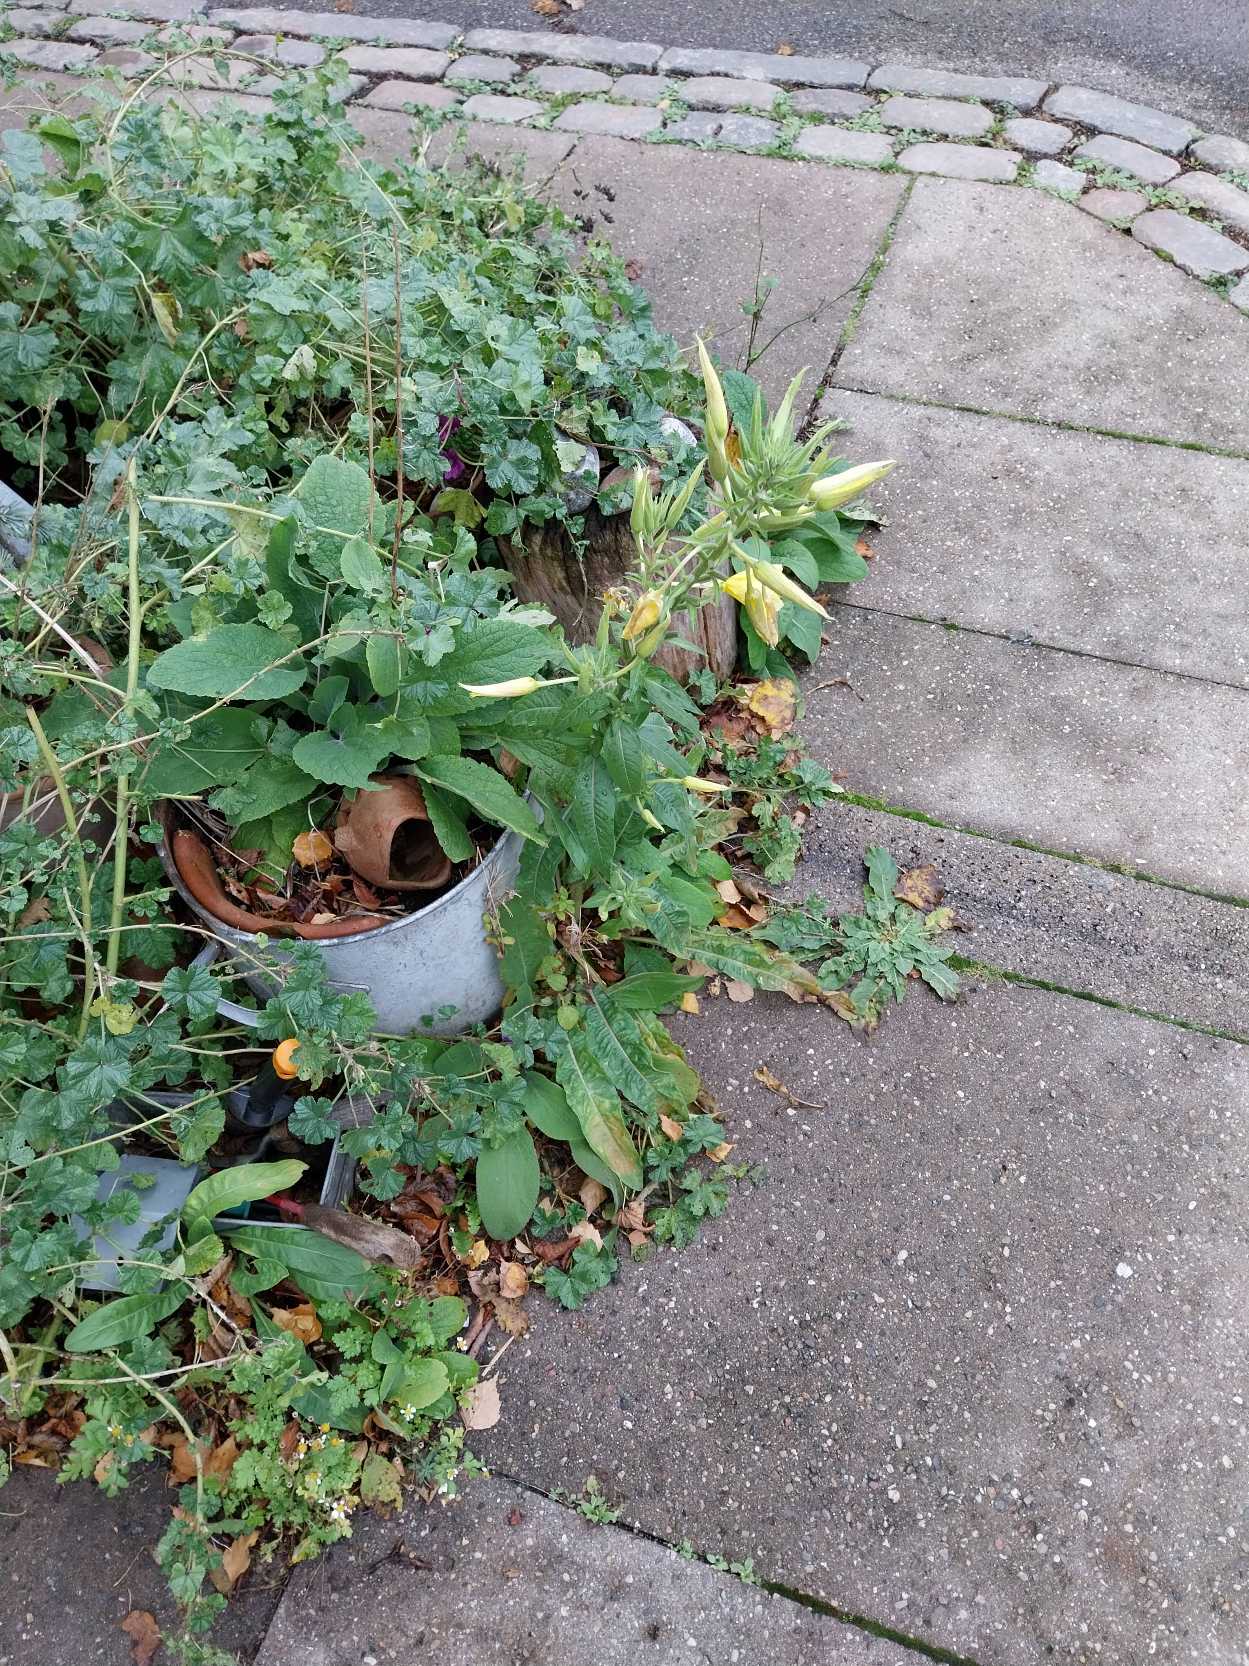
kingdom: Plantae
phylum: Tracheophyta
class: Magnoliopsida
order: Myrtales
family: Onagraceae
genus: Oenothera
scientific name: Oenothera glazioviana
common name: Kæmpe-natlys
